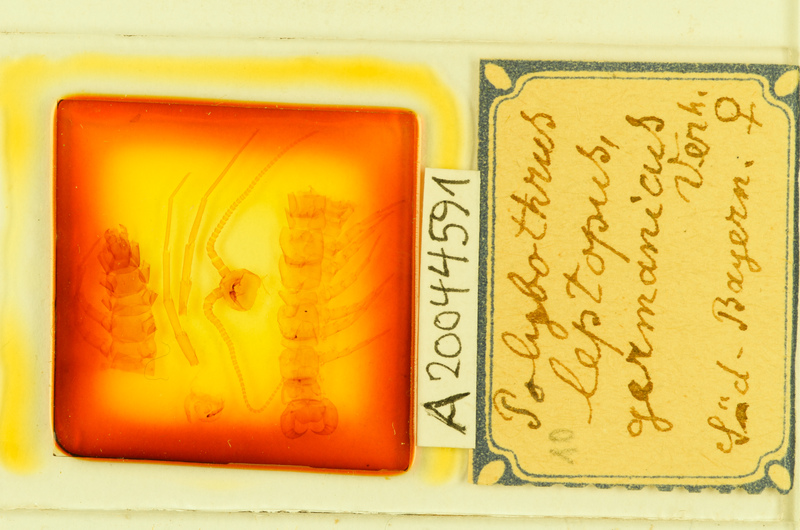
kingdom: Animalia
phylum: Arthropoda
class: Chilopoda
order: Lithobiomorpha
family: Lithobiidae
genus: Polybothrus
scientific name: Polybothrus leptopus
